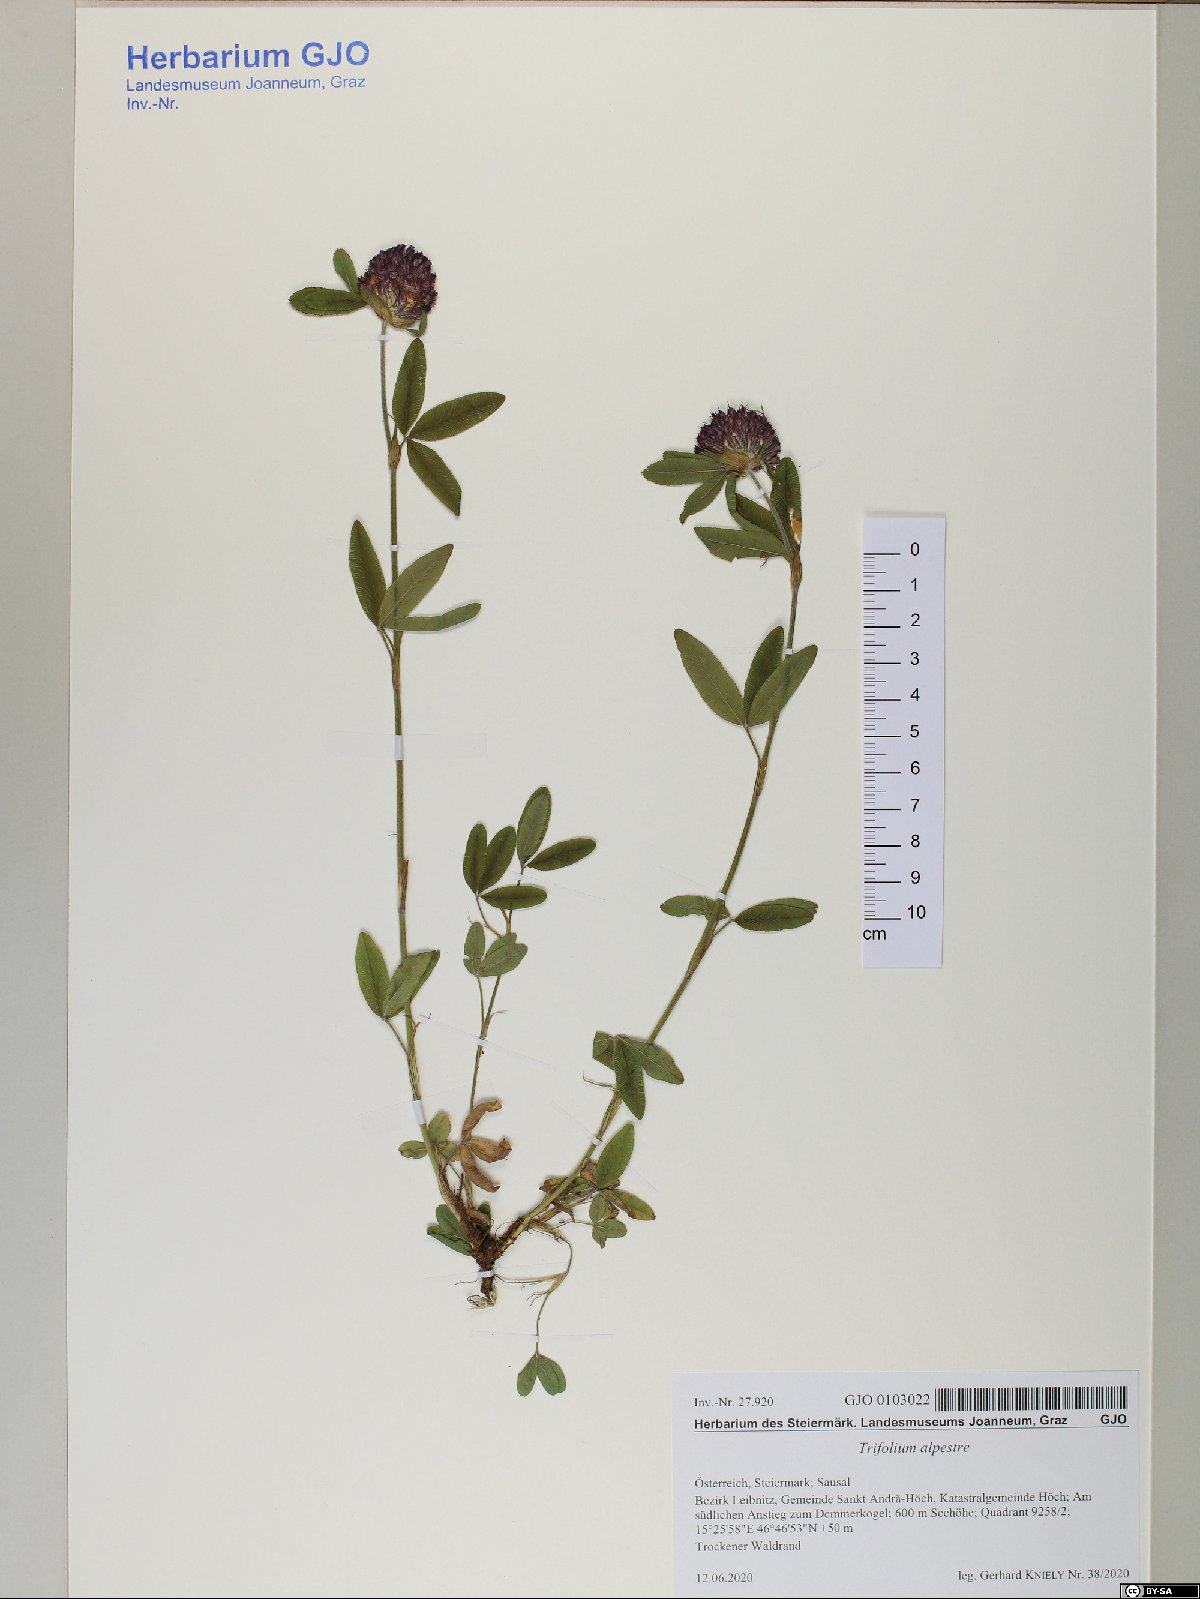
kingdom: Plantae
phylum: Tracheophyta
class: Magnoliopsida
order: Fabales
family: Fabaceae
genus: Trifolium
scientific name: Trifolium alpestre
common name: Owl-head clover
